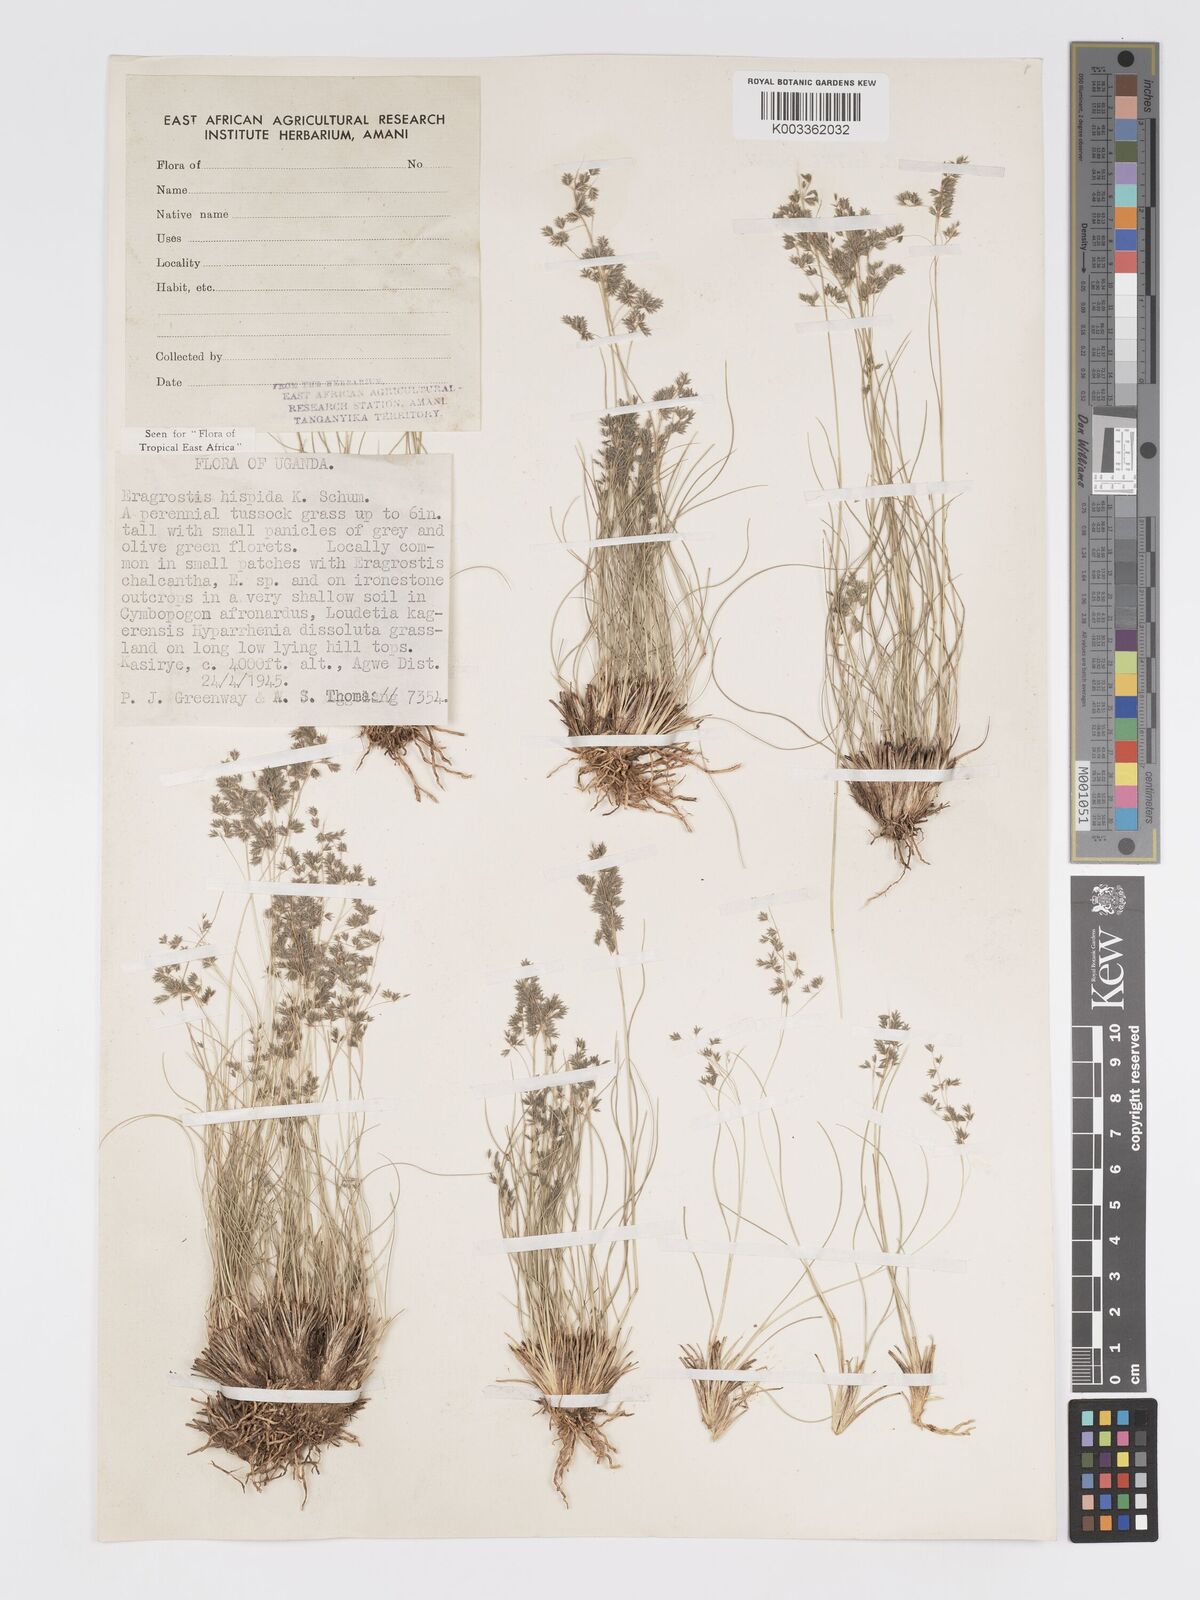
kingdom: Plantae
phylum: Tracheophyta
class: Liliopsida
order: Poales
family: Poaceae
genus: Eragrostis
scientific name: Eragrostis hispida
